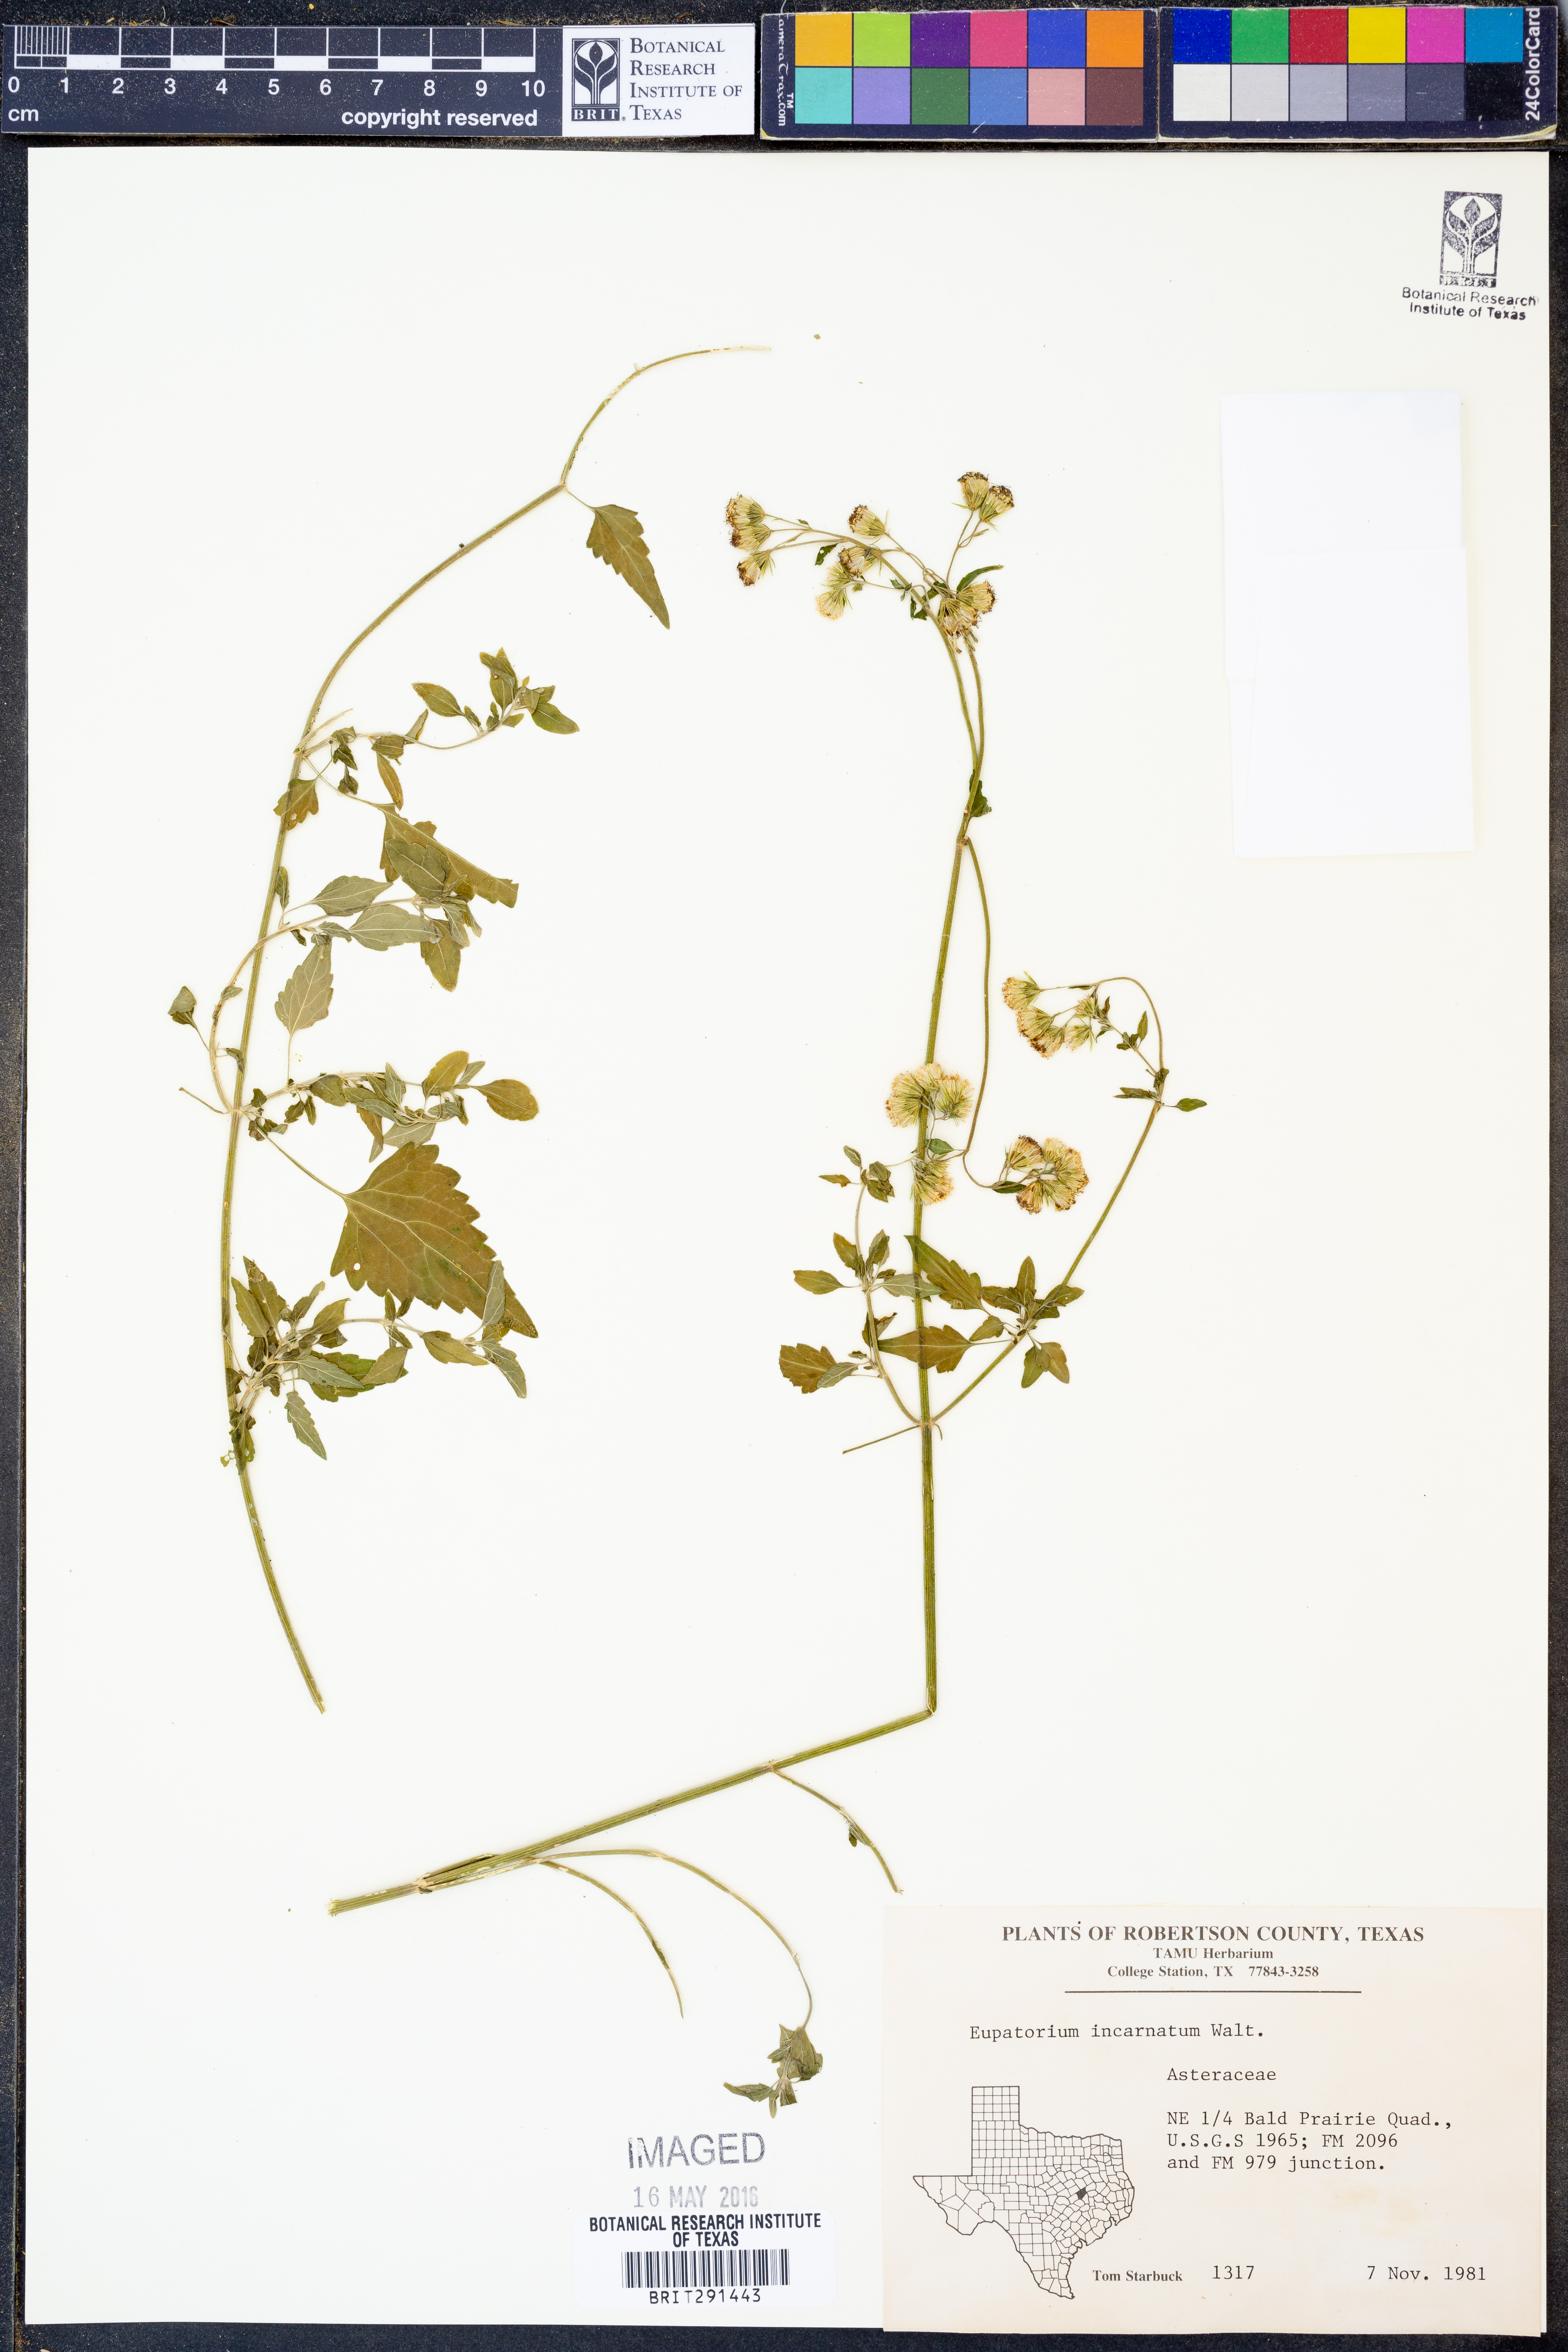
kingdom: Plantae
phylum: Tracheophyta
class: Magnoliopsida
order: Asterales
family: Asteraceae
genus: Fleischmannia
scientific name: Fleischmannia incarnata
